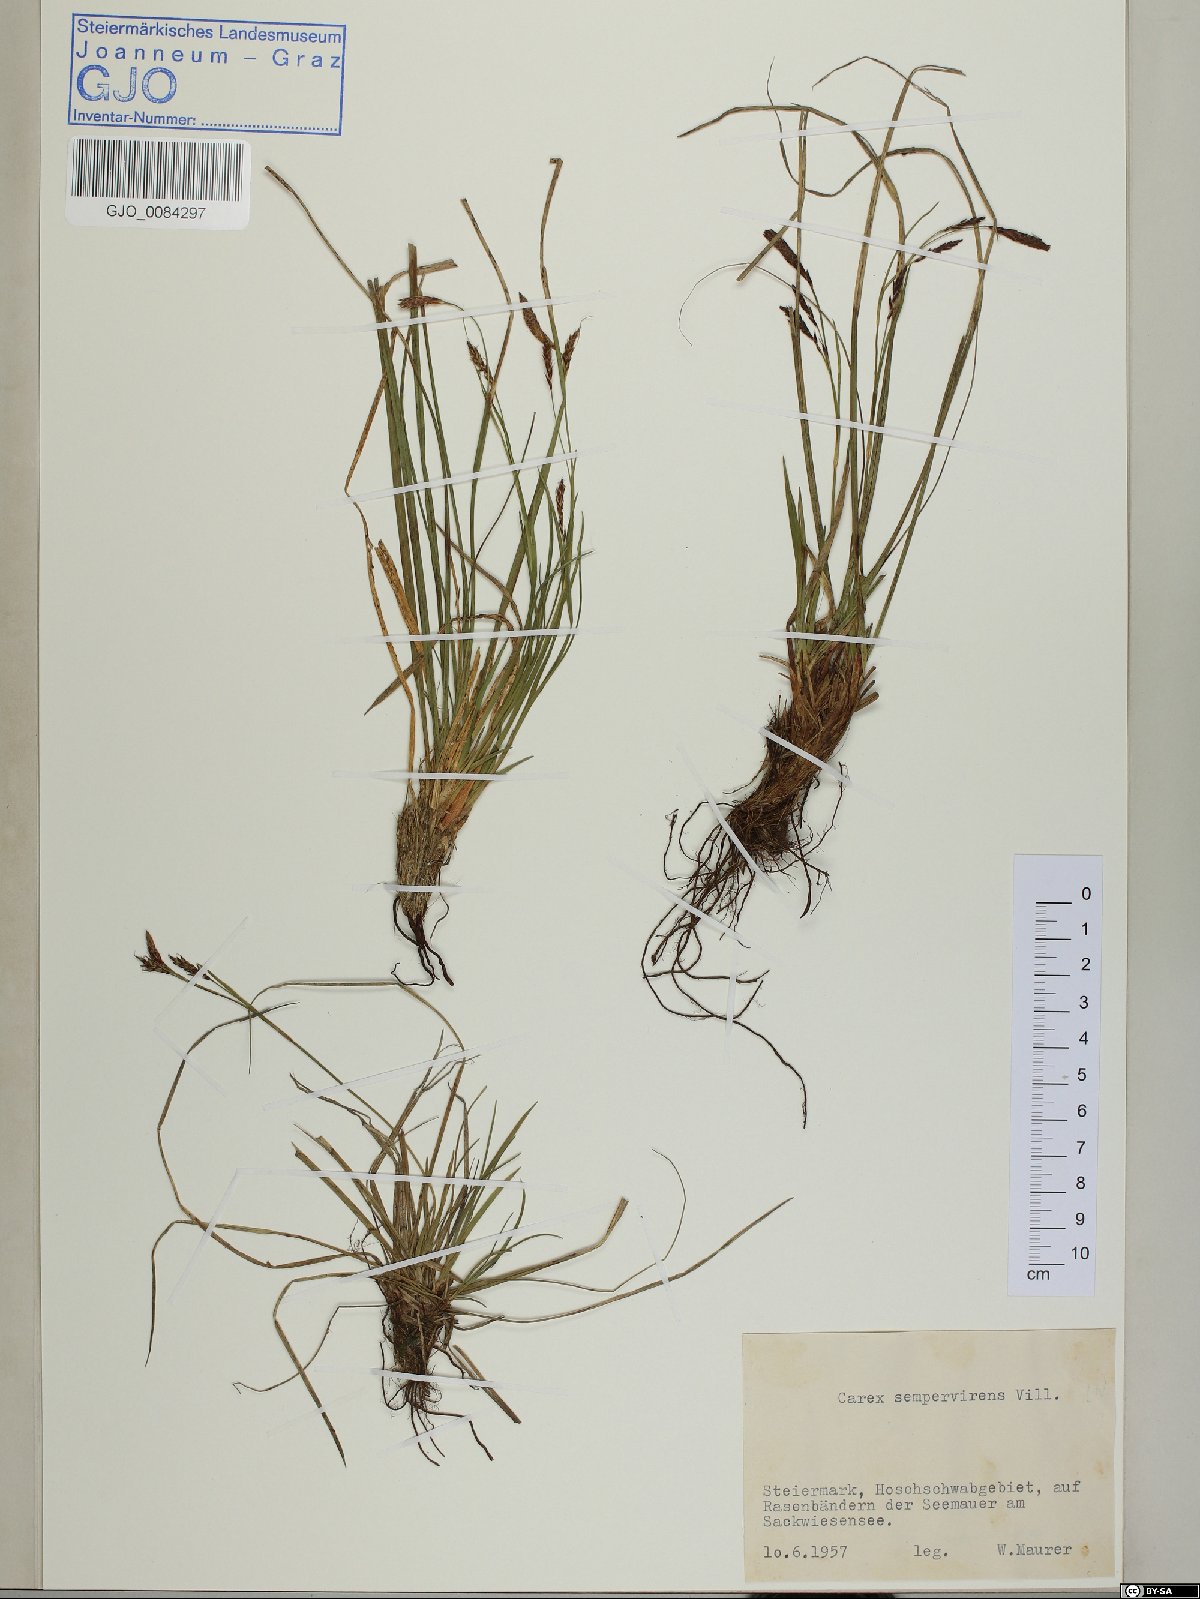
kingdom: Plantae
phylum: Tracheophyta
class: Liliopsida
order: Poales
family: Cyperaceae
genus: Carex
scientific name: Carex sempervirens
